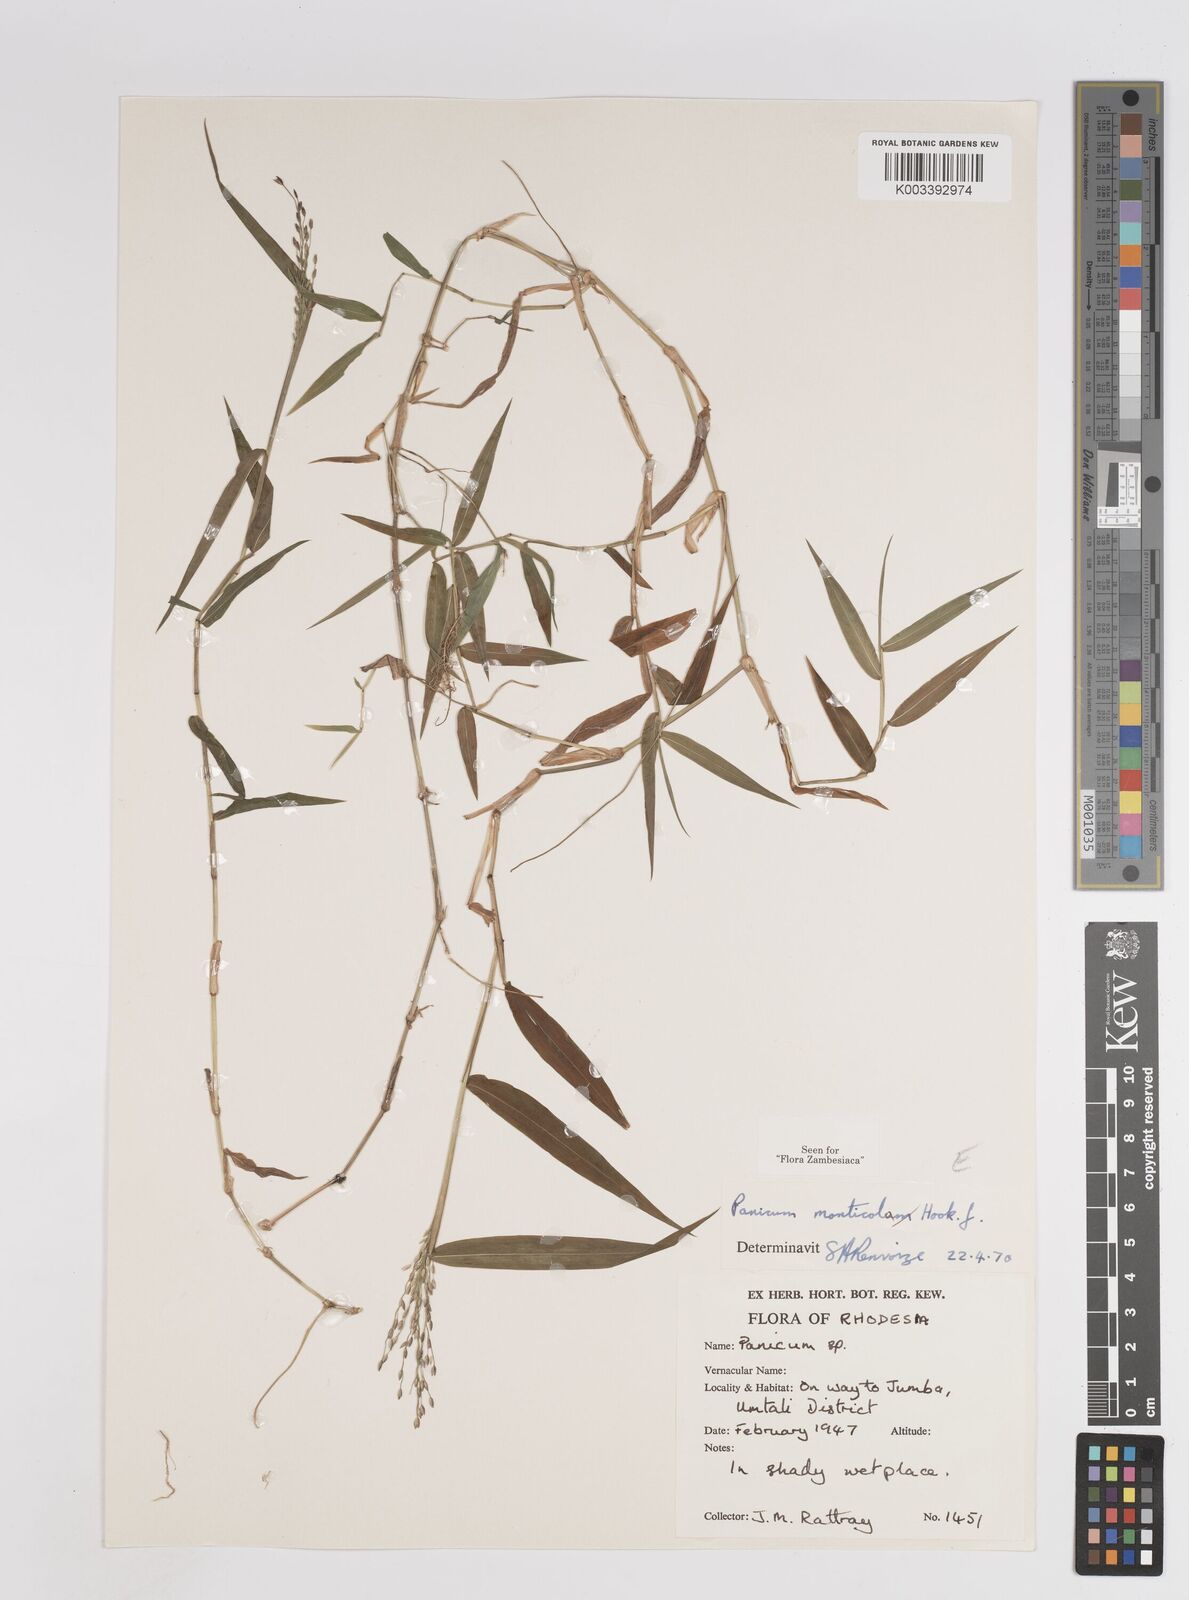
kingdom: Plantae
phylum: Tracheophyta
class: Liliopsida
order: Poales
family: Poaceae
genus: Panicum
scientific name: Panicum monticola
